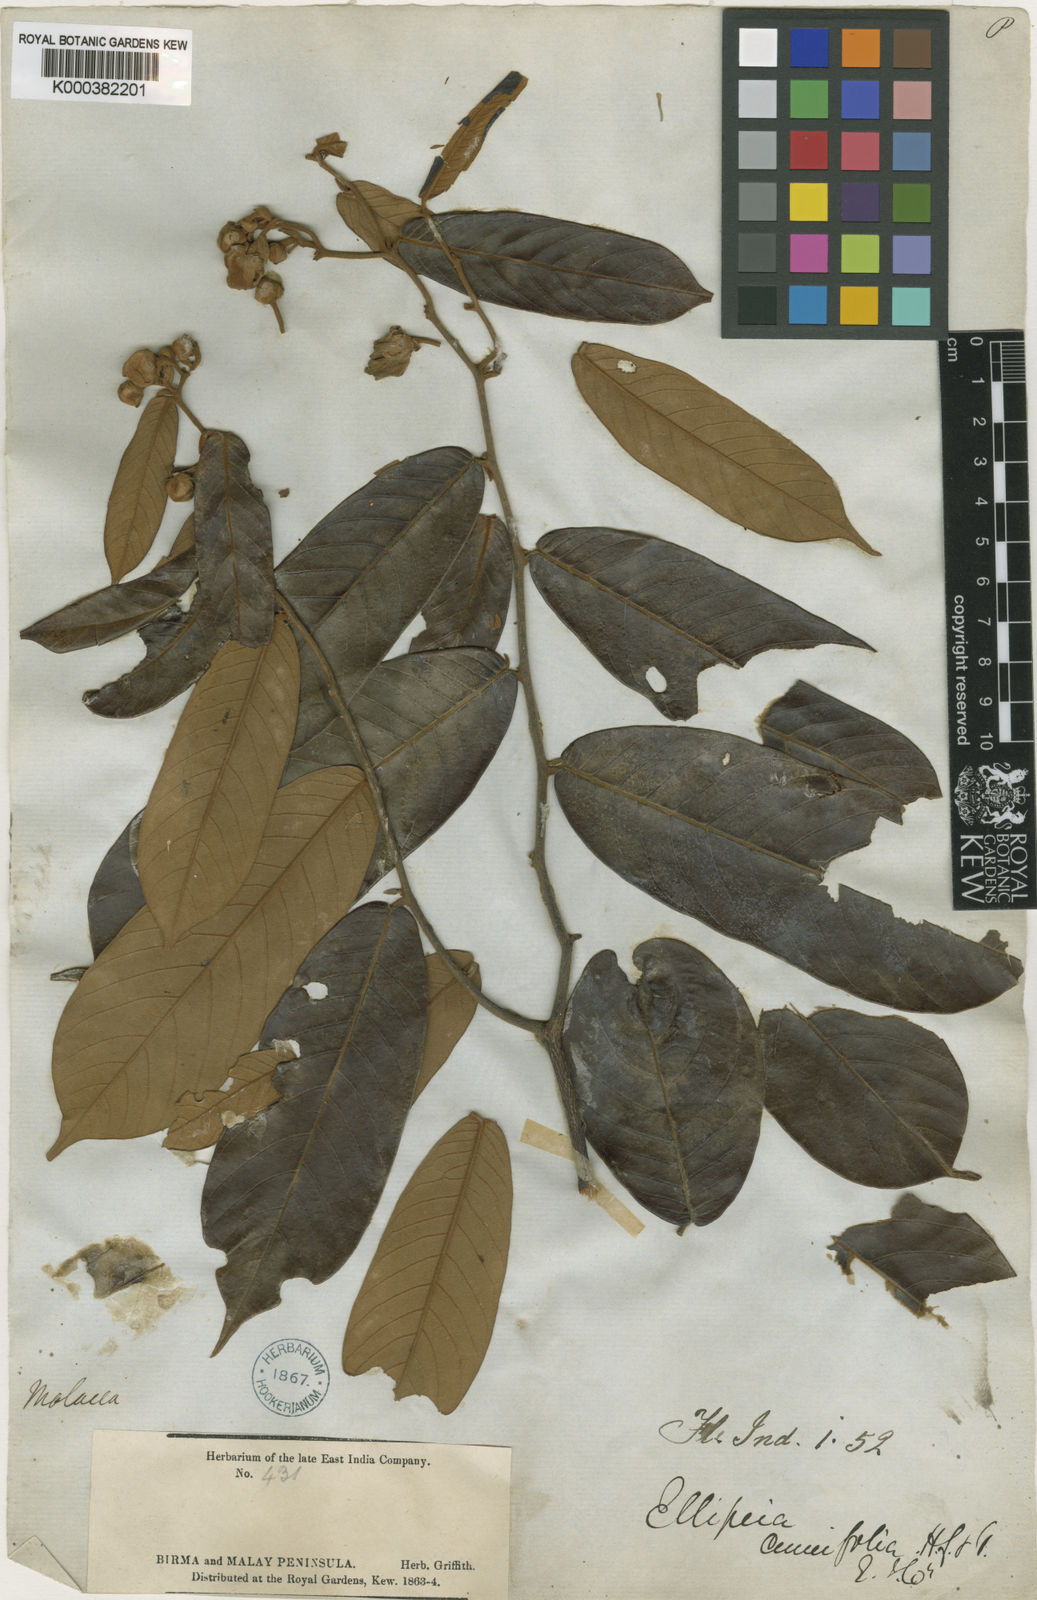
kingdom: Plantae
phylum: Tracheophyta
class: Magnoliopsida
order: Magnoliales
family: Annonaceae
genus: Uvaria
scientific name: Uvaria cuneifolia
